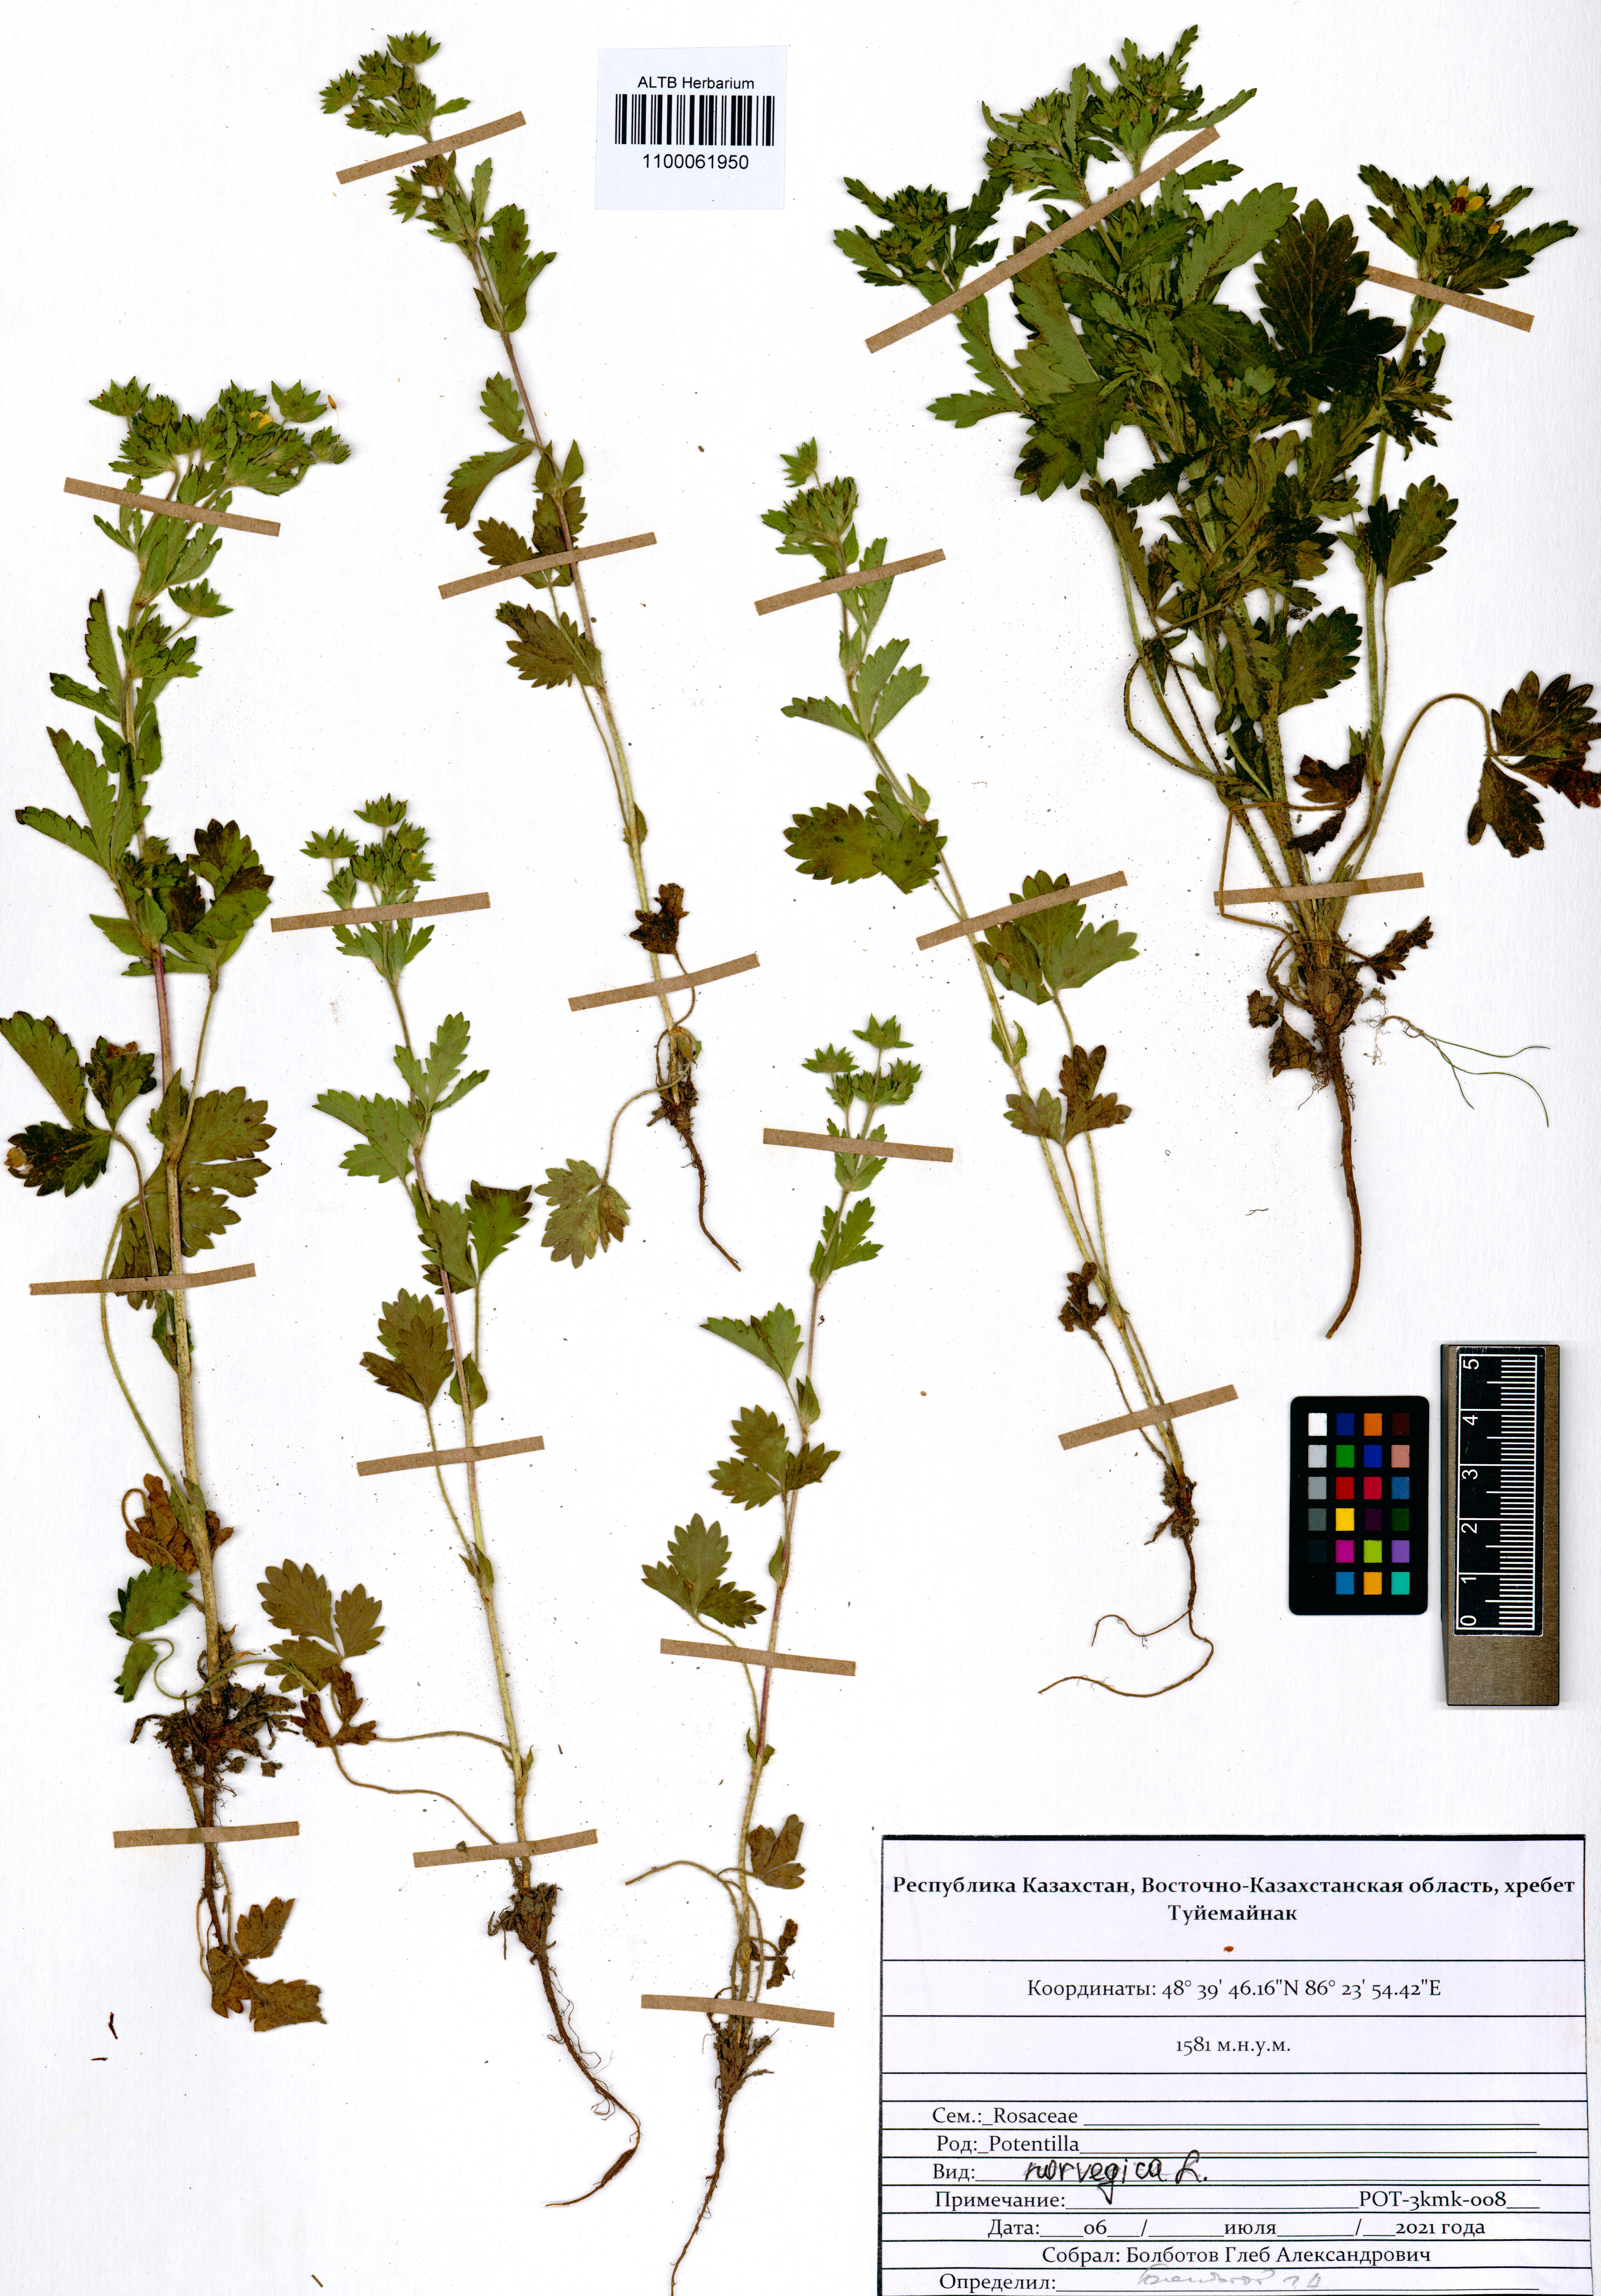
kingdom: Plantae
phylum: Tracheophyta
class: Magnoliopsida
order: Rosales
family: Rosaceae
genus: Potentilla
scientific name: Potentilla norvegica
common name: Ternate-leaved cinquefoil
